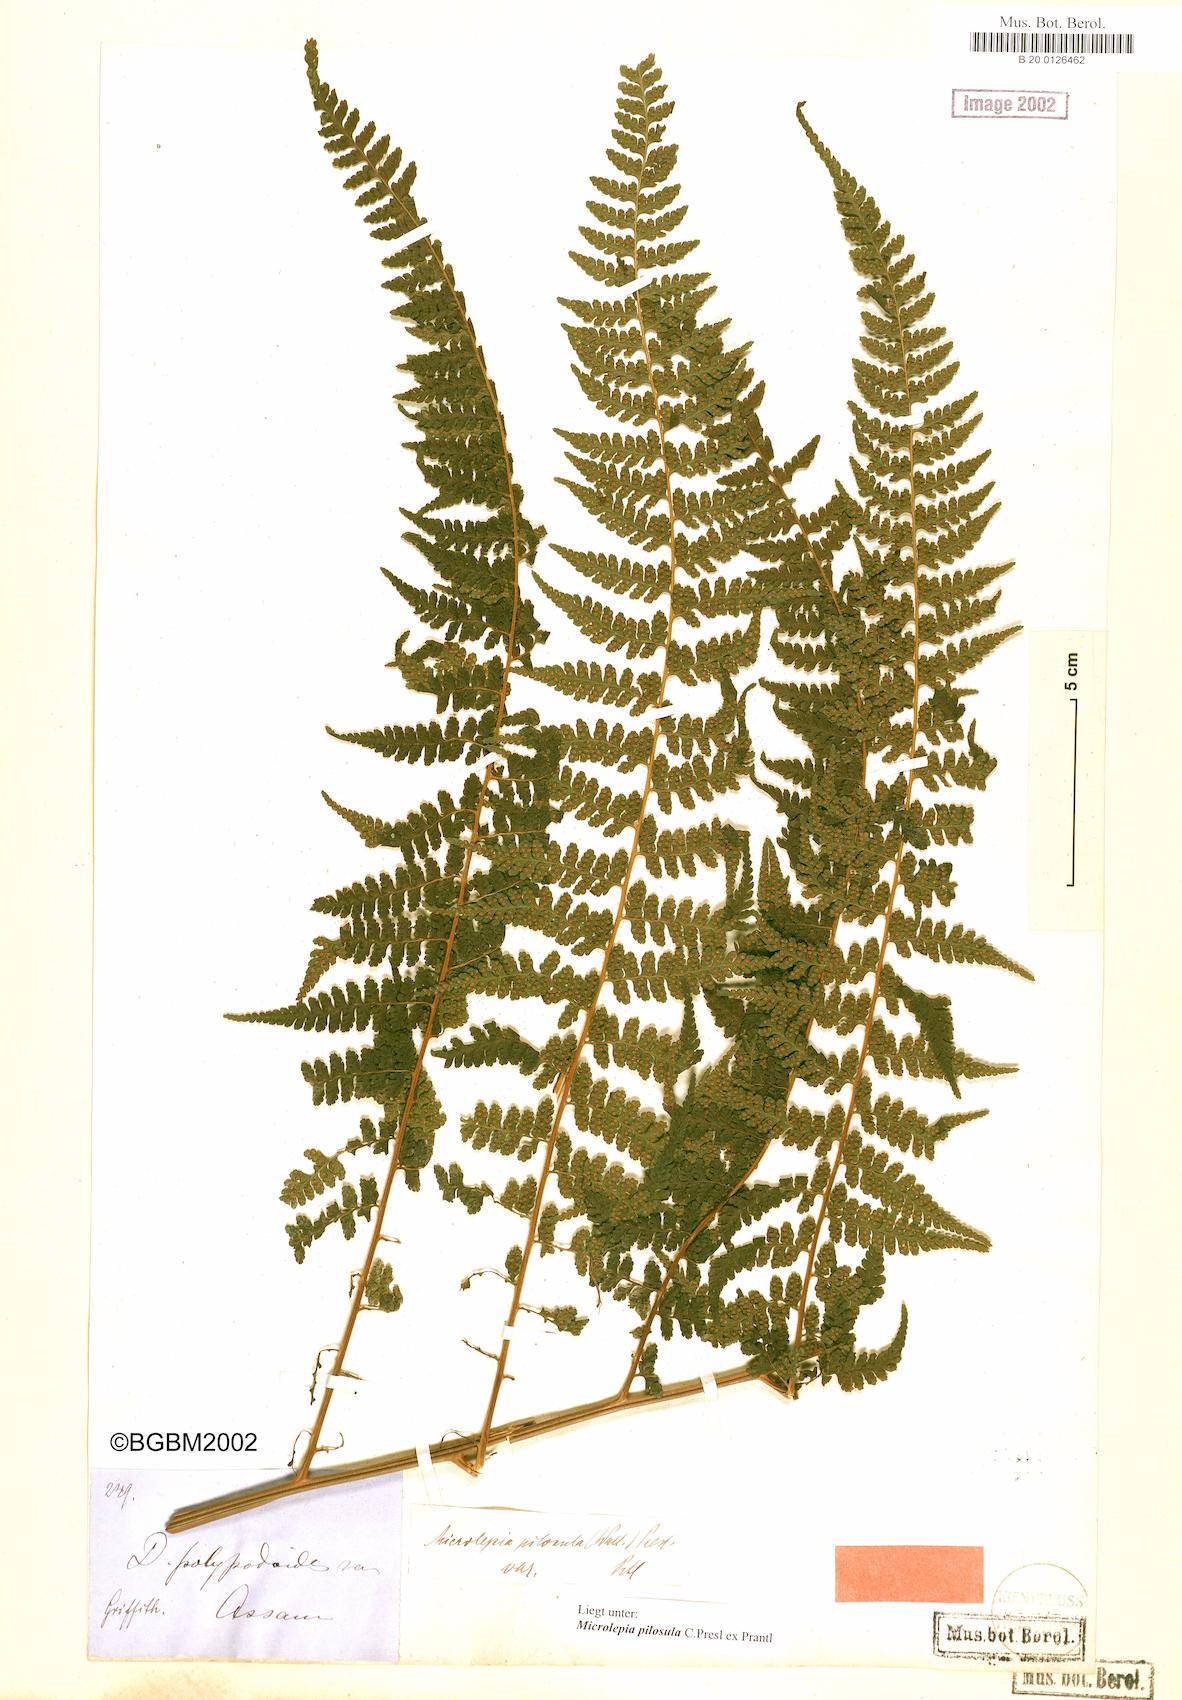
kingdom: Plantae
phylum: Tracheophyta
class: Polypodiopsida
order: Polypodiales
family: Dennstaedtiaceae
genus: Microlepia
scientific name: Microlepia speluncae
